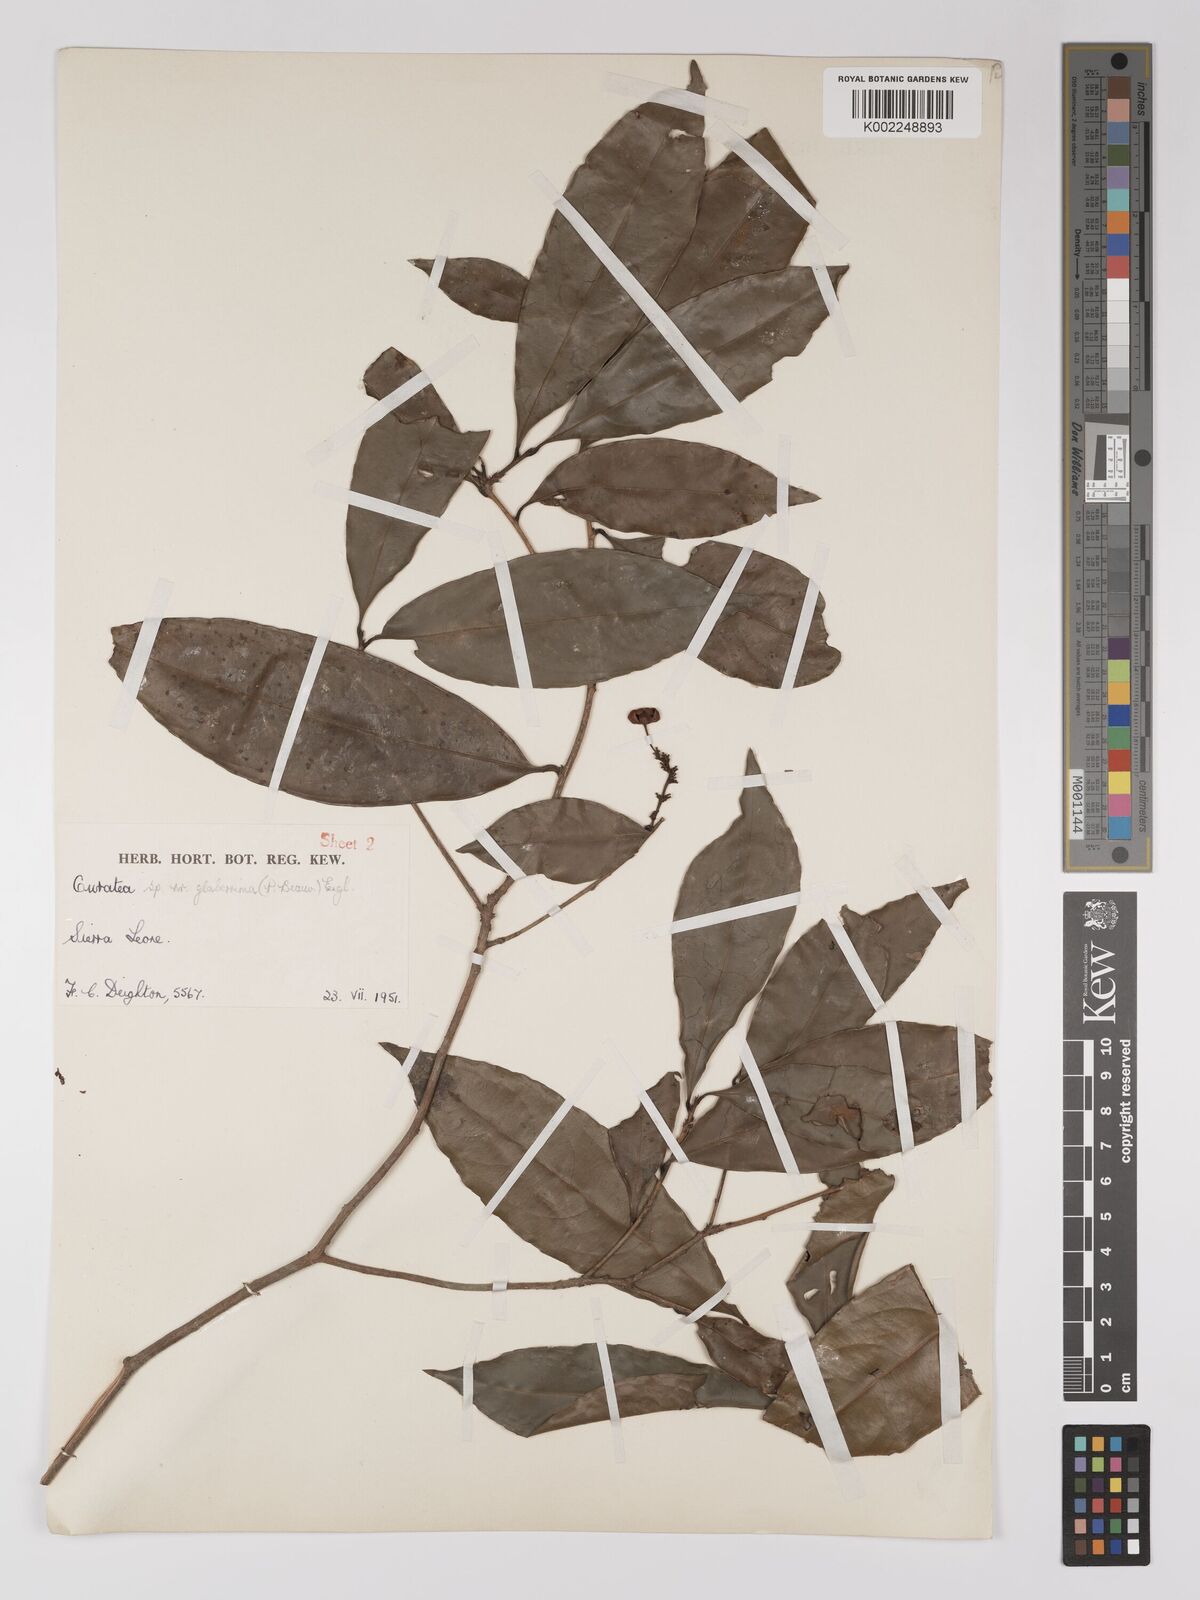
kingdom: Plantae
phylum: Tracheophyta
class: Magnoliopsida
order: Malpighiales
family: Ochnaceae
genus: Campylospermum
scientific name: Campylospermum glaberrimum
